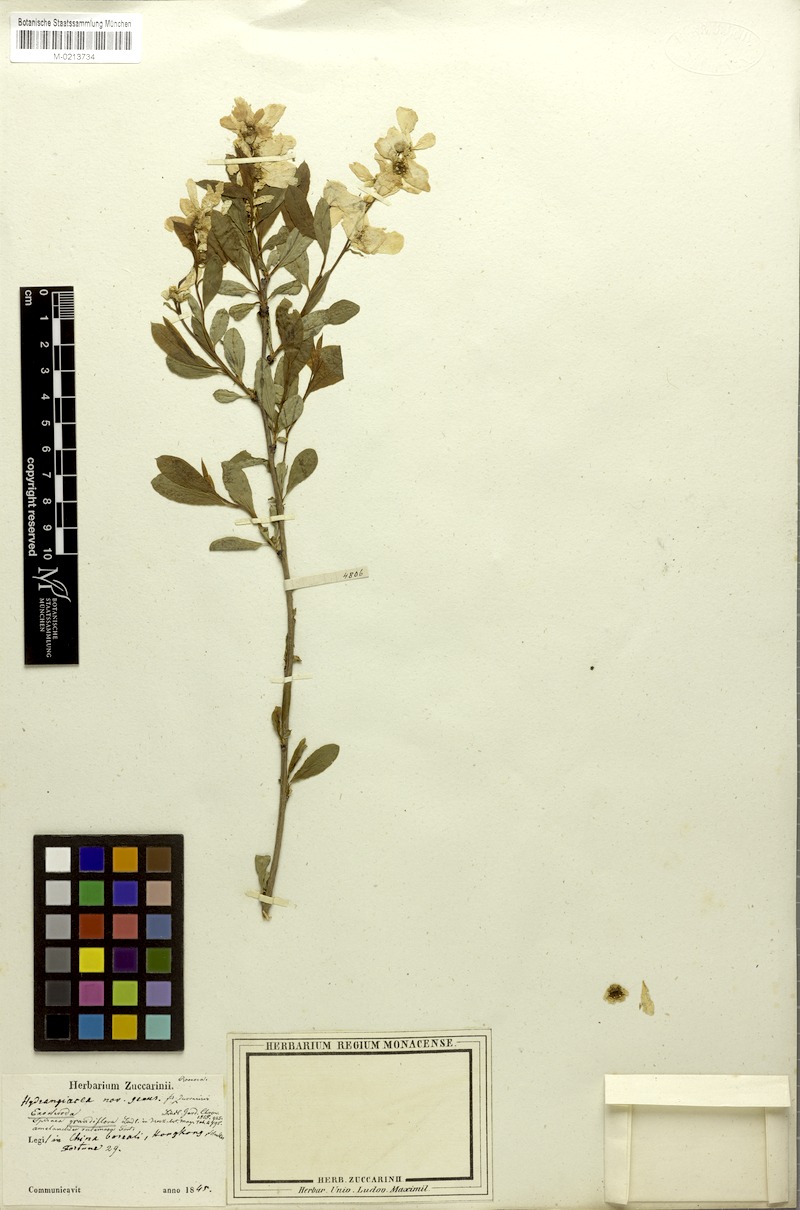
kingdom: Plantae
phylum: Tracheophyta
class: Magnoliopsida
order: Rosales
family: Rosaceae
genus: Exochorda
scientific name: Exochorda racemosa
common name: Common pearlbrush
